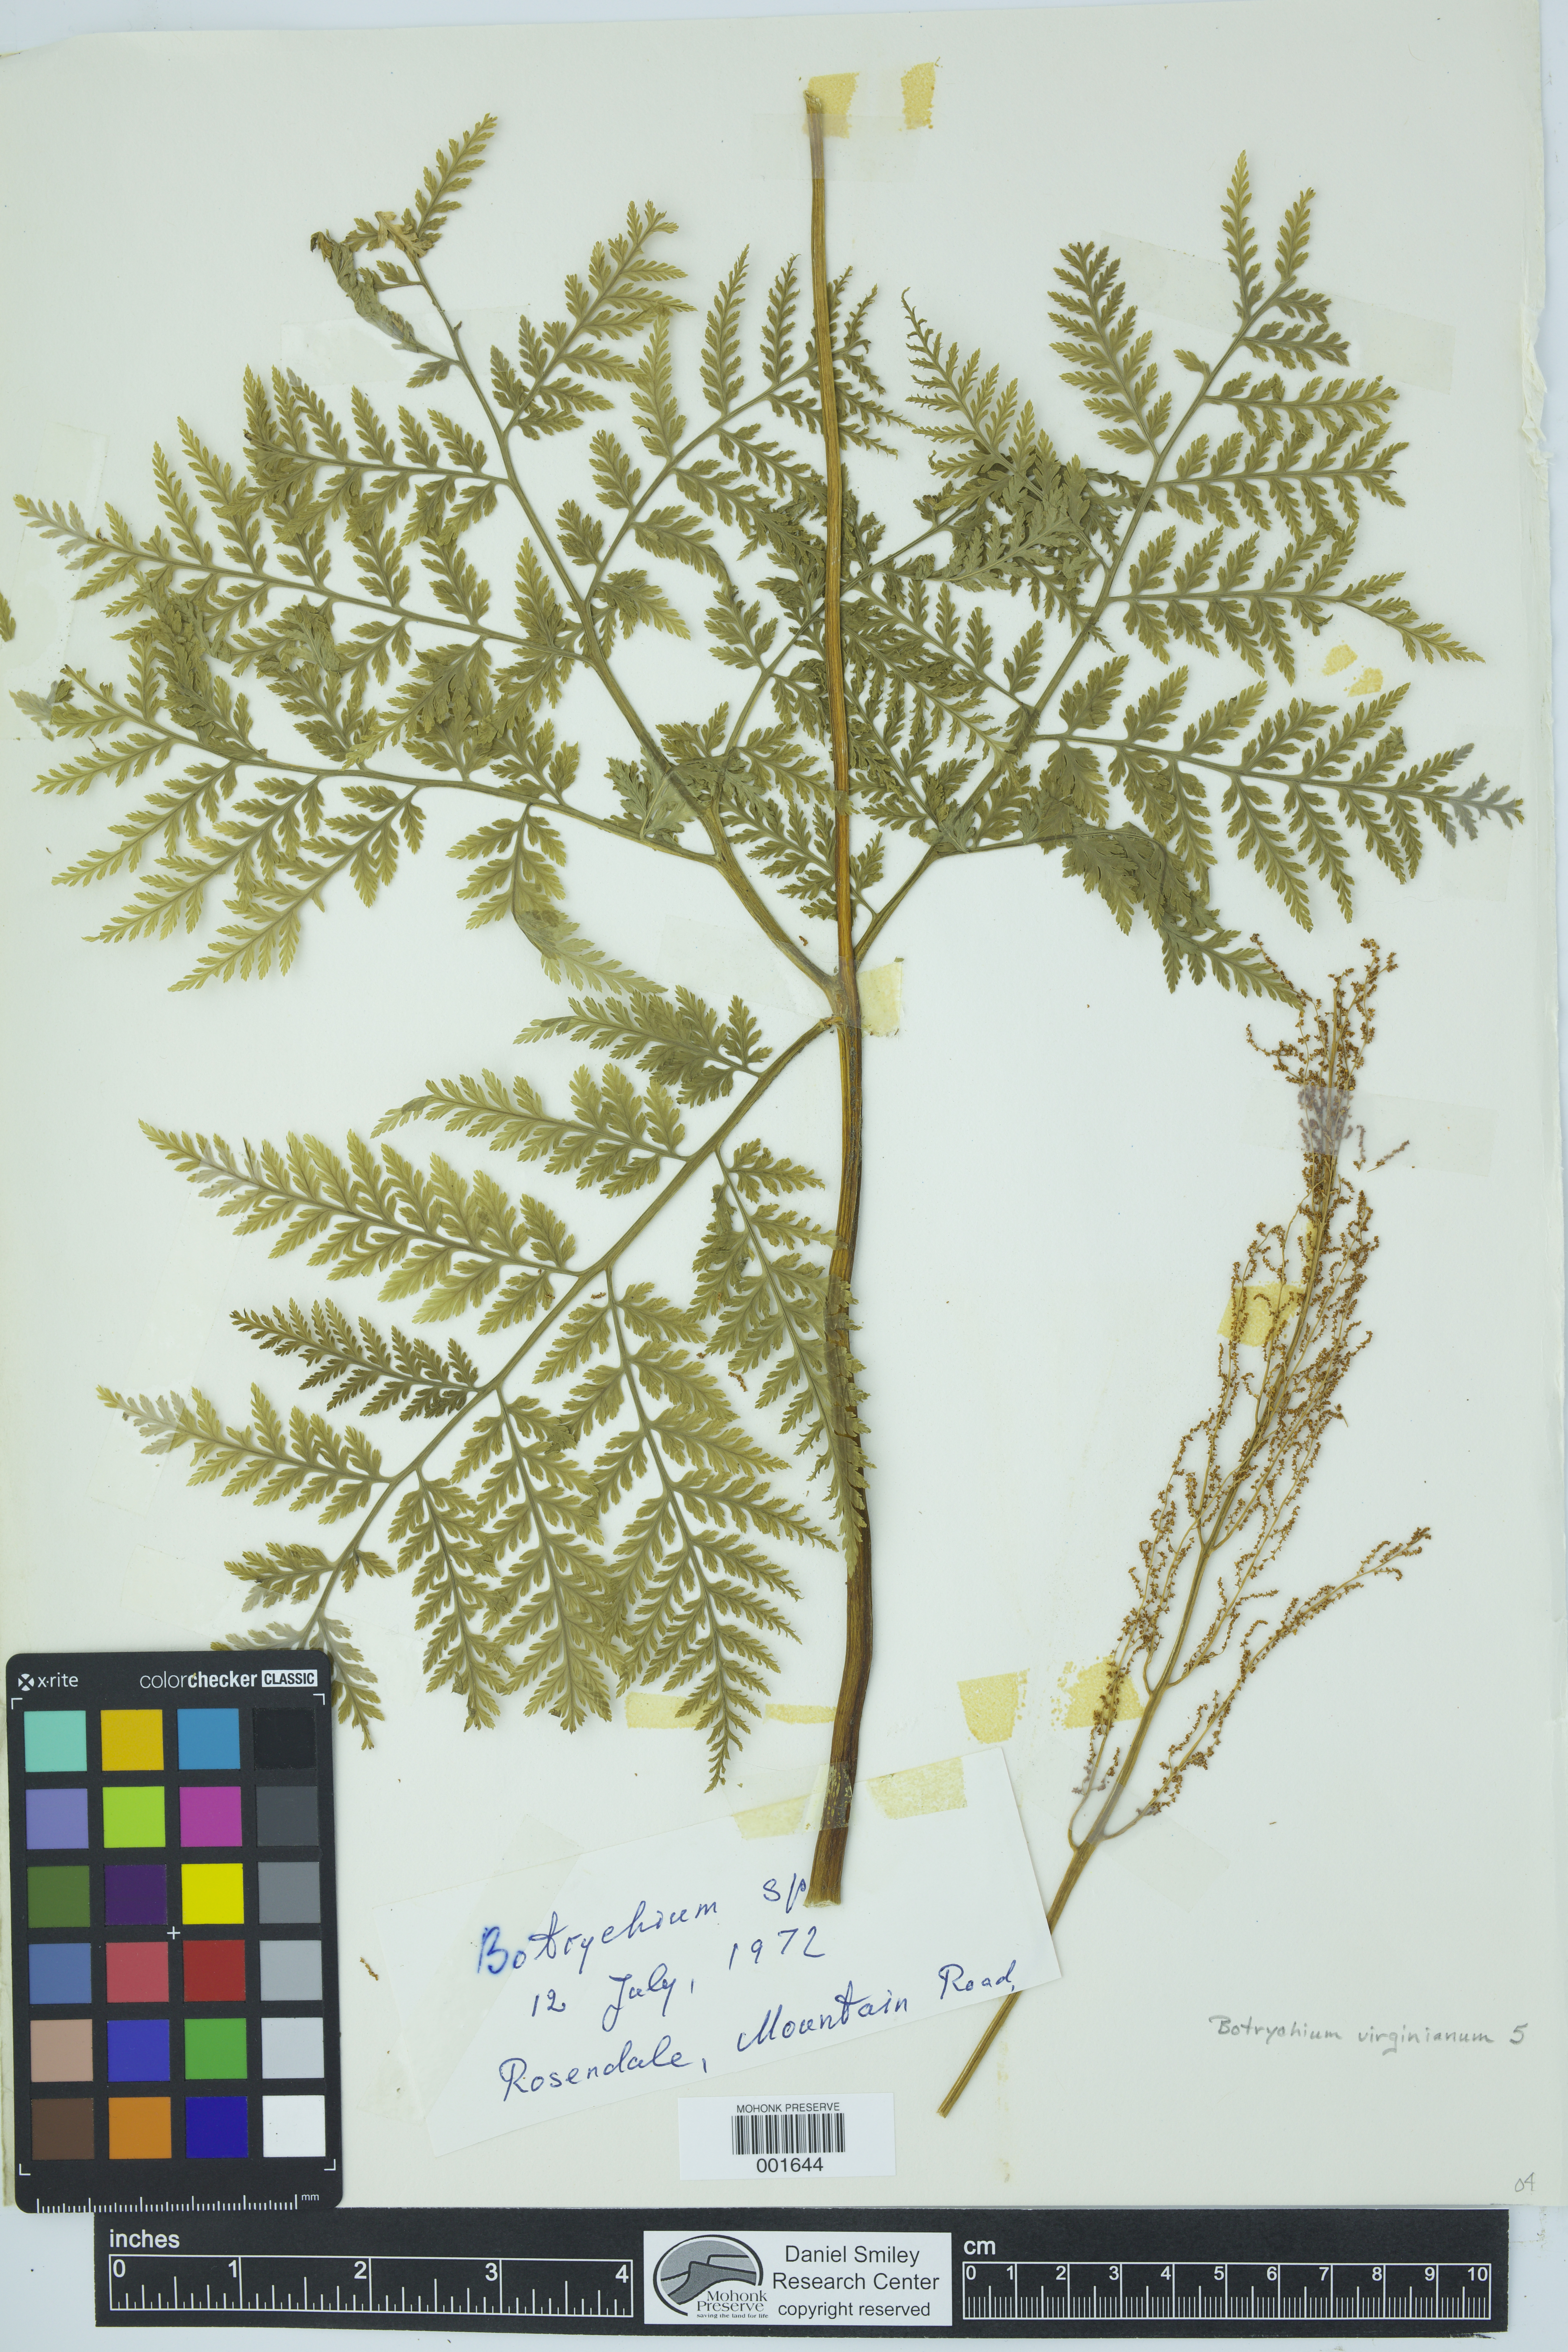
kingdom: Plantae
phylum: Tracheophyta
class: Polypodiopsida
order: Ophioglossales
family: Ophioglossaceae
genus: Botrypus
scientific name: Botrypus virginianus
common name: Common grapefern
